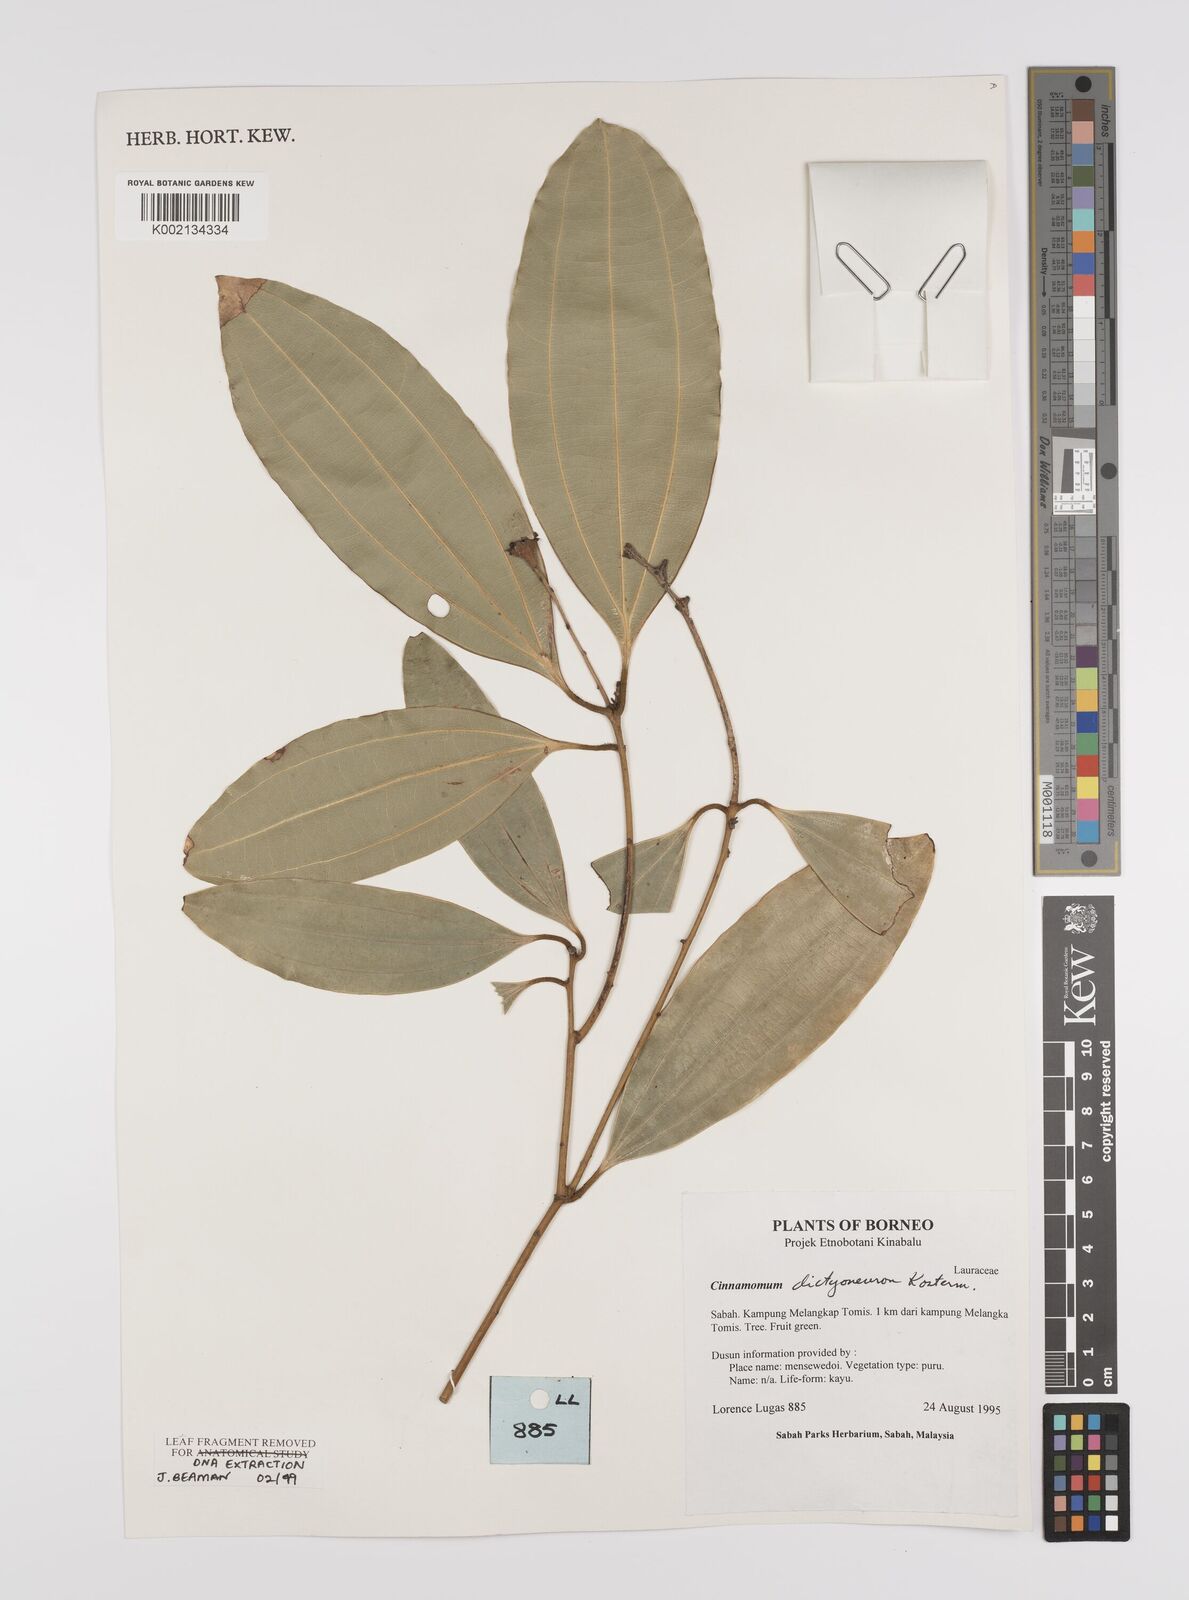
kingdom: Plantae
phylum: Tracheophyta
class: Magnoliopsida
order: Laurales
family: Lauraceae
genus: Cinnamomum
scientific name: Cinnamomum racemosum
